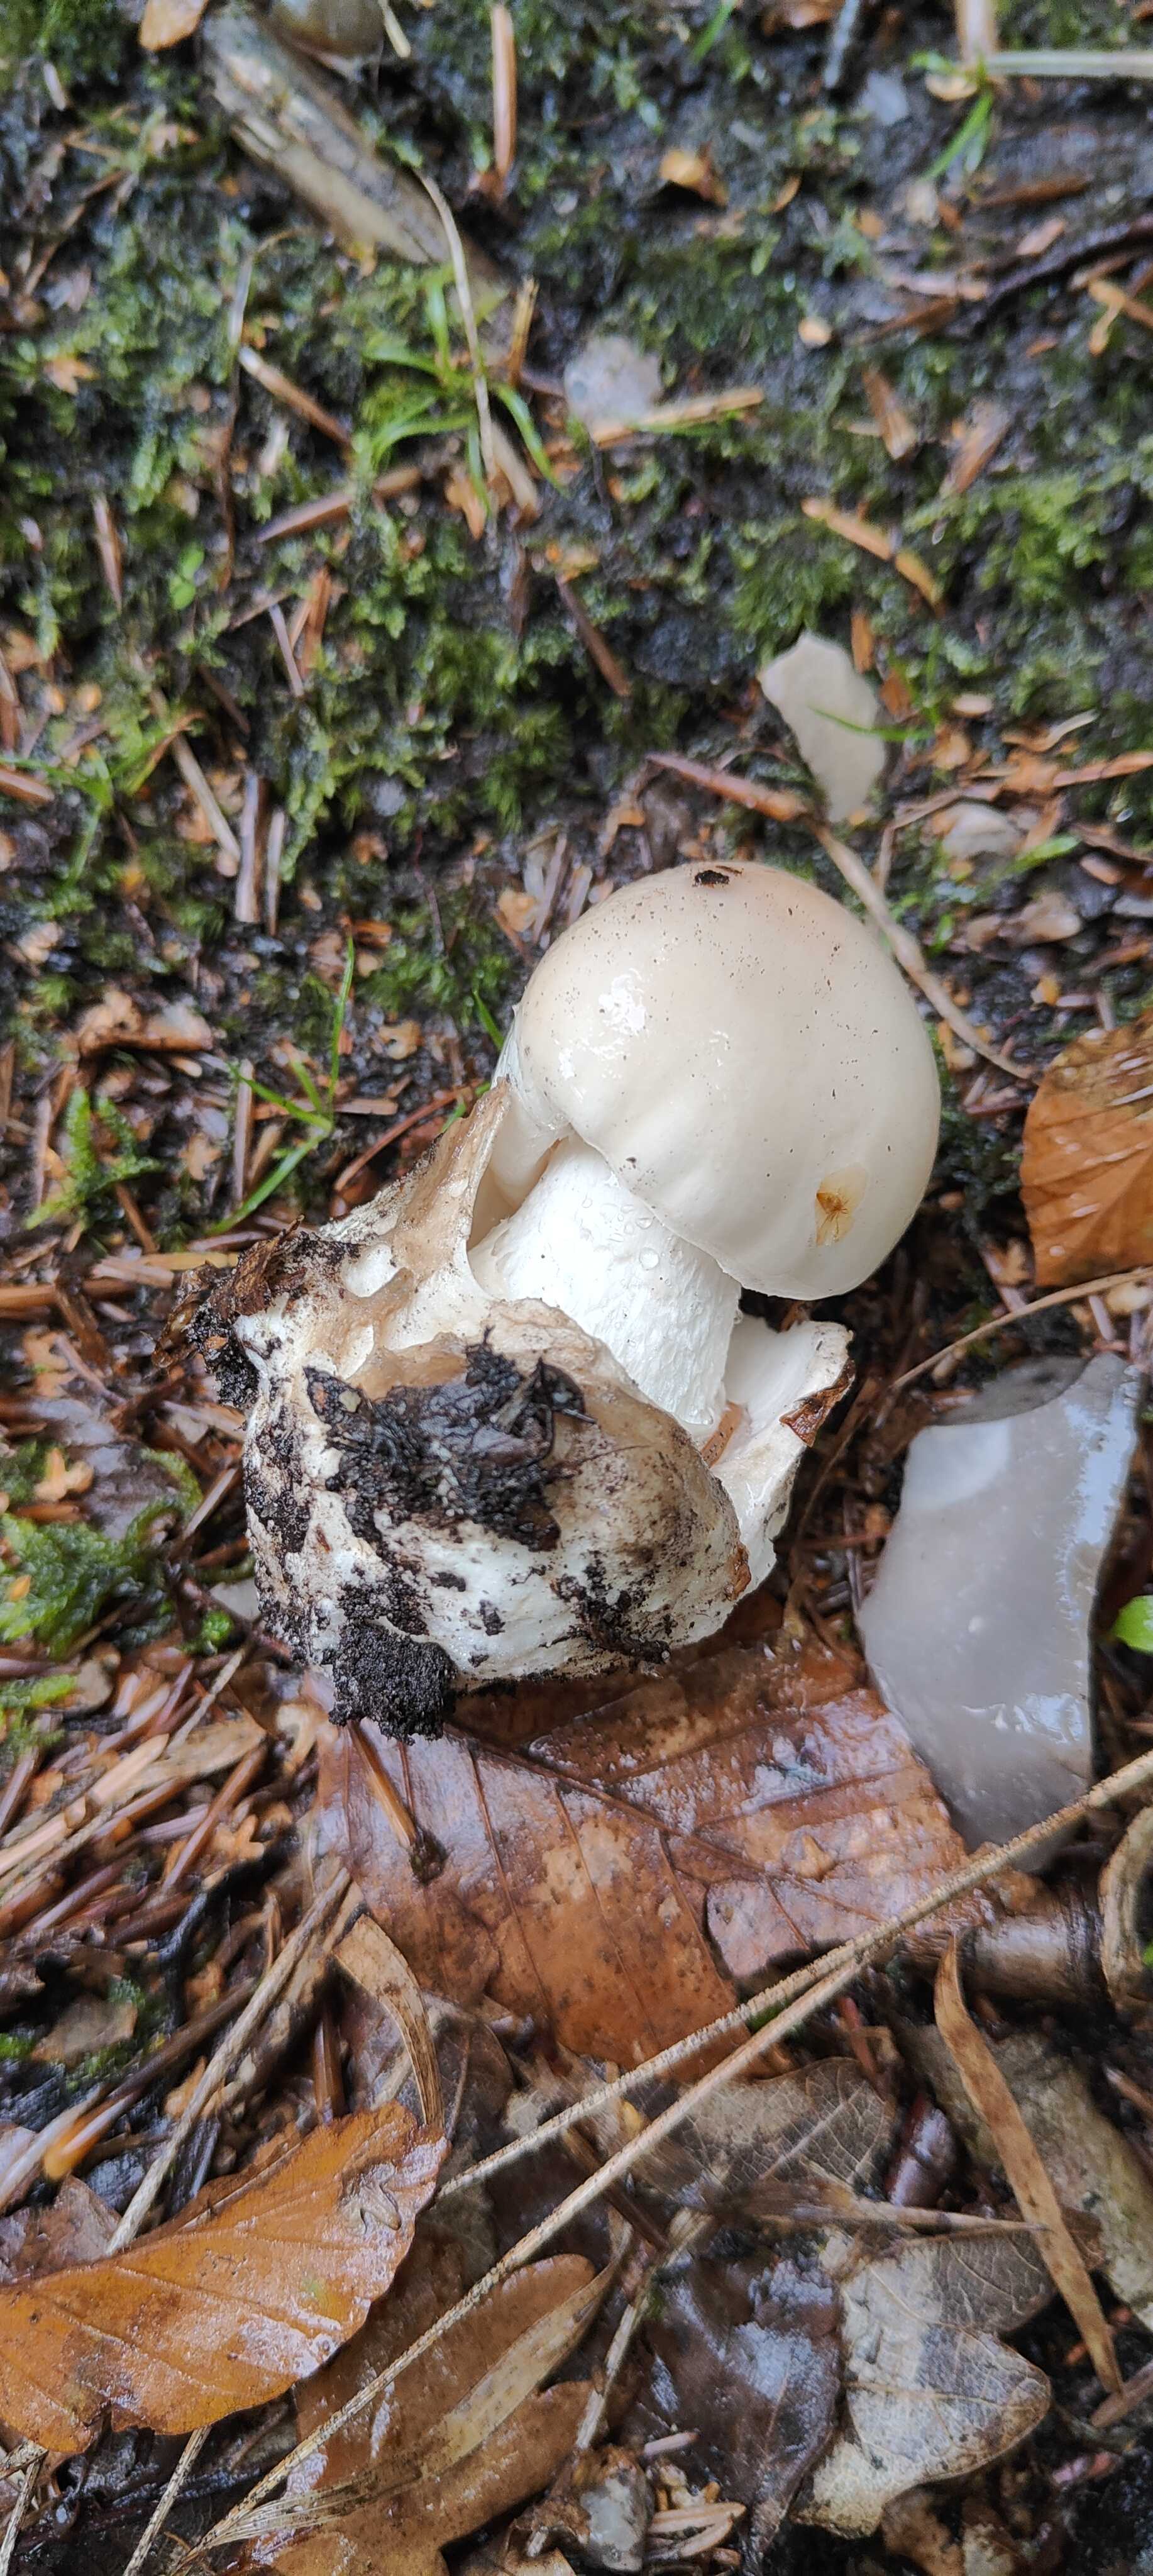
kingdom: Fungi
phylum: Basidiomycota
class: Agaricomycetes
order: Agaricales
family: Amanitaceae
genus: Amanita
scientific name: Amanita virosa
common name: snehvid fluesvamp
